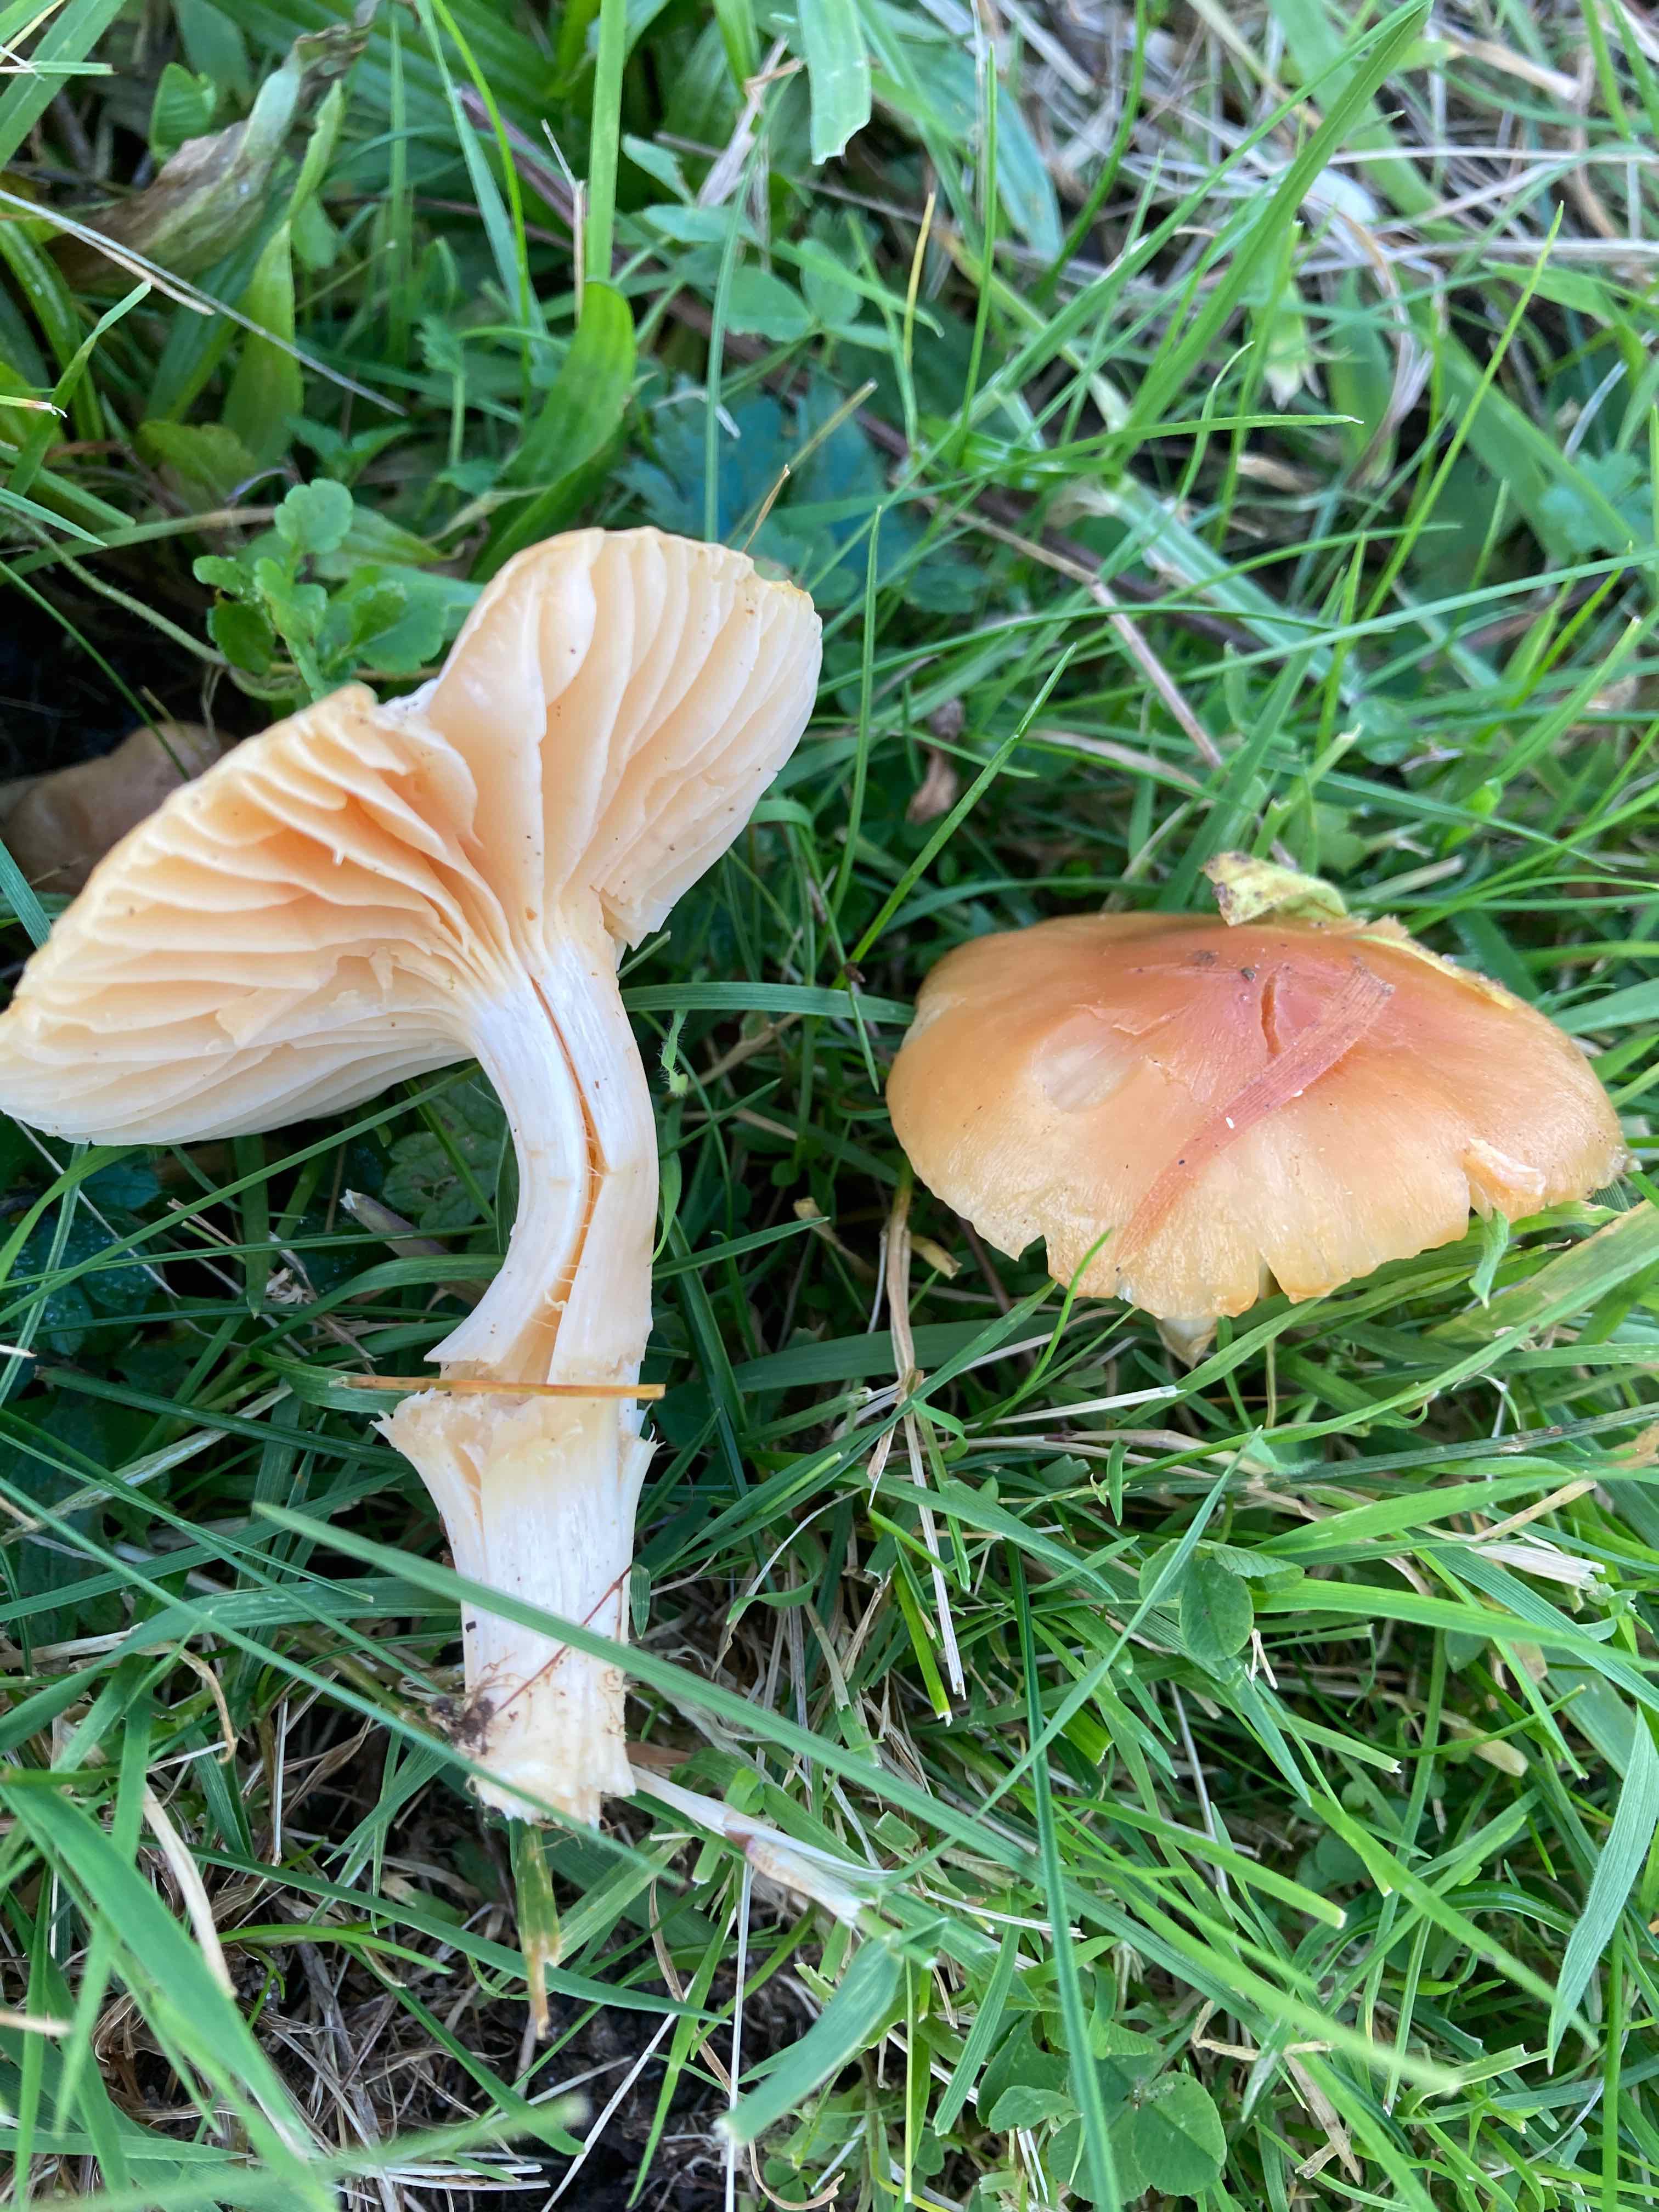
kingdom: Fungi
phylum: Basidiomycota
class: Agaricomycetes
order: Agaricales
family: Hygrophoraceae
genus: Cuphophyllus
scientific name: Cuphophyllus pratensis
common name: eng-vokshat
